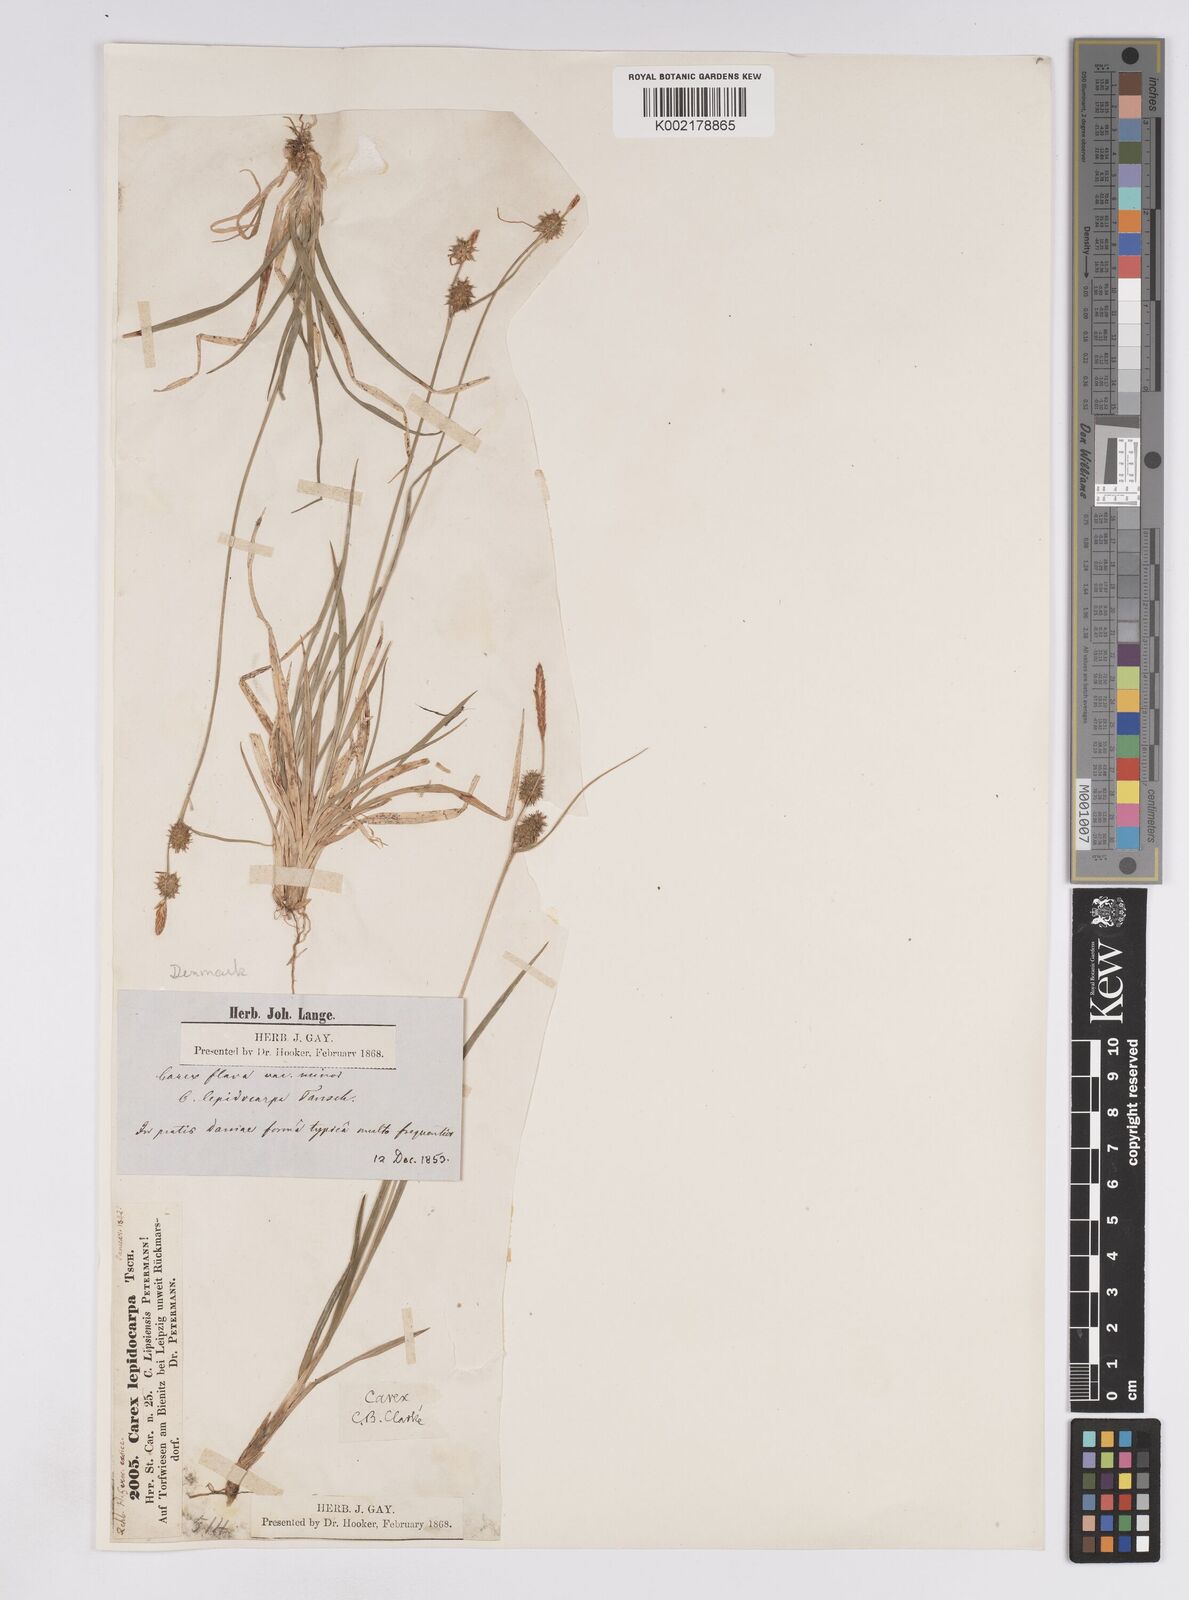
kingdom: Plantae
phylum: Tracheophyta
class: Liliopsida
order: Poales
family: Cyperaceae
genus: Carex
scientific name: Carex lepidocarpa
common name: Long-stalked yellow-sedge
